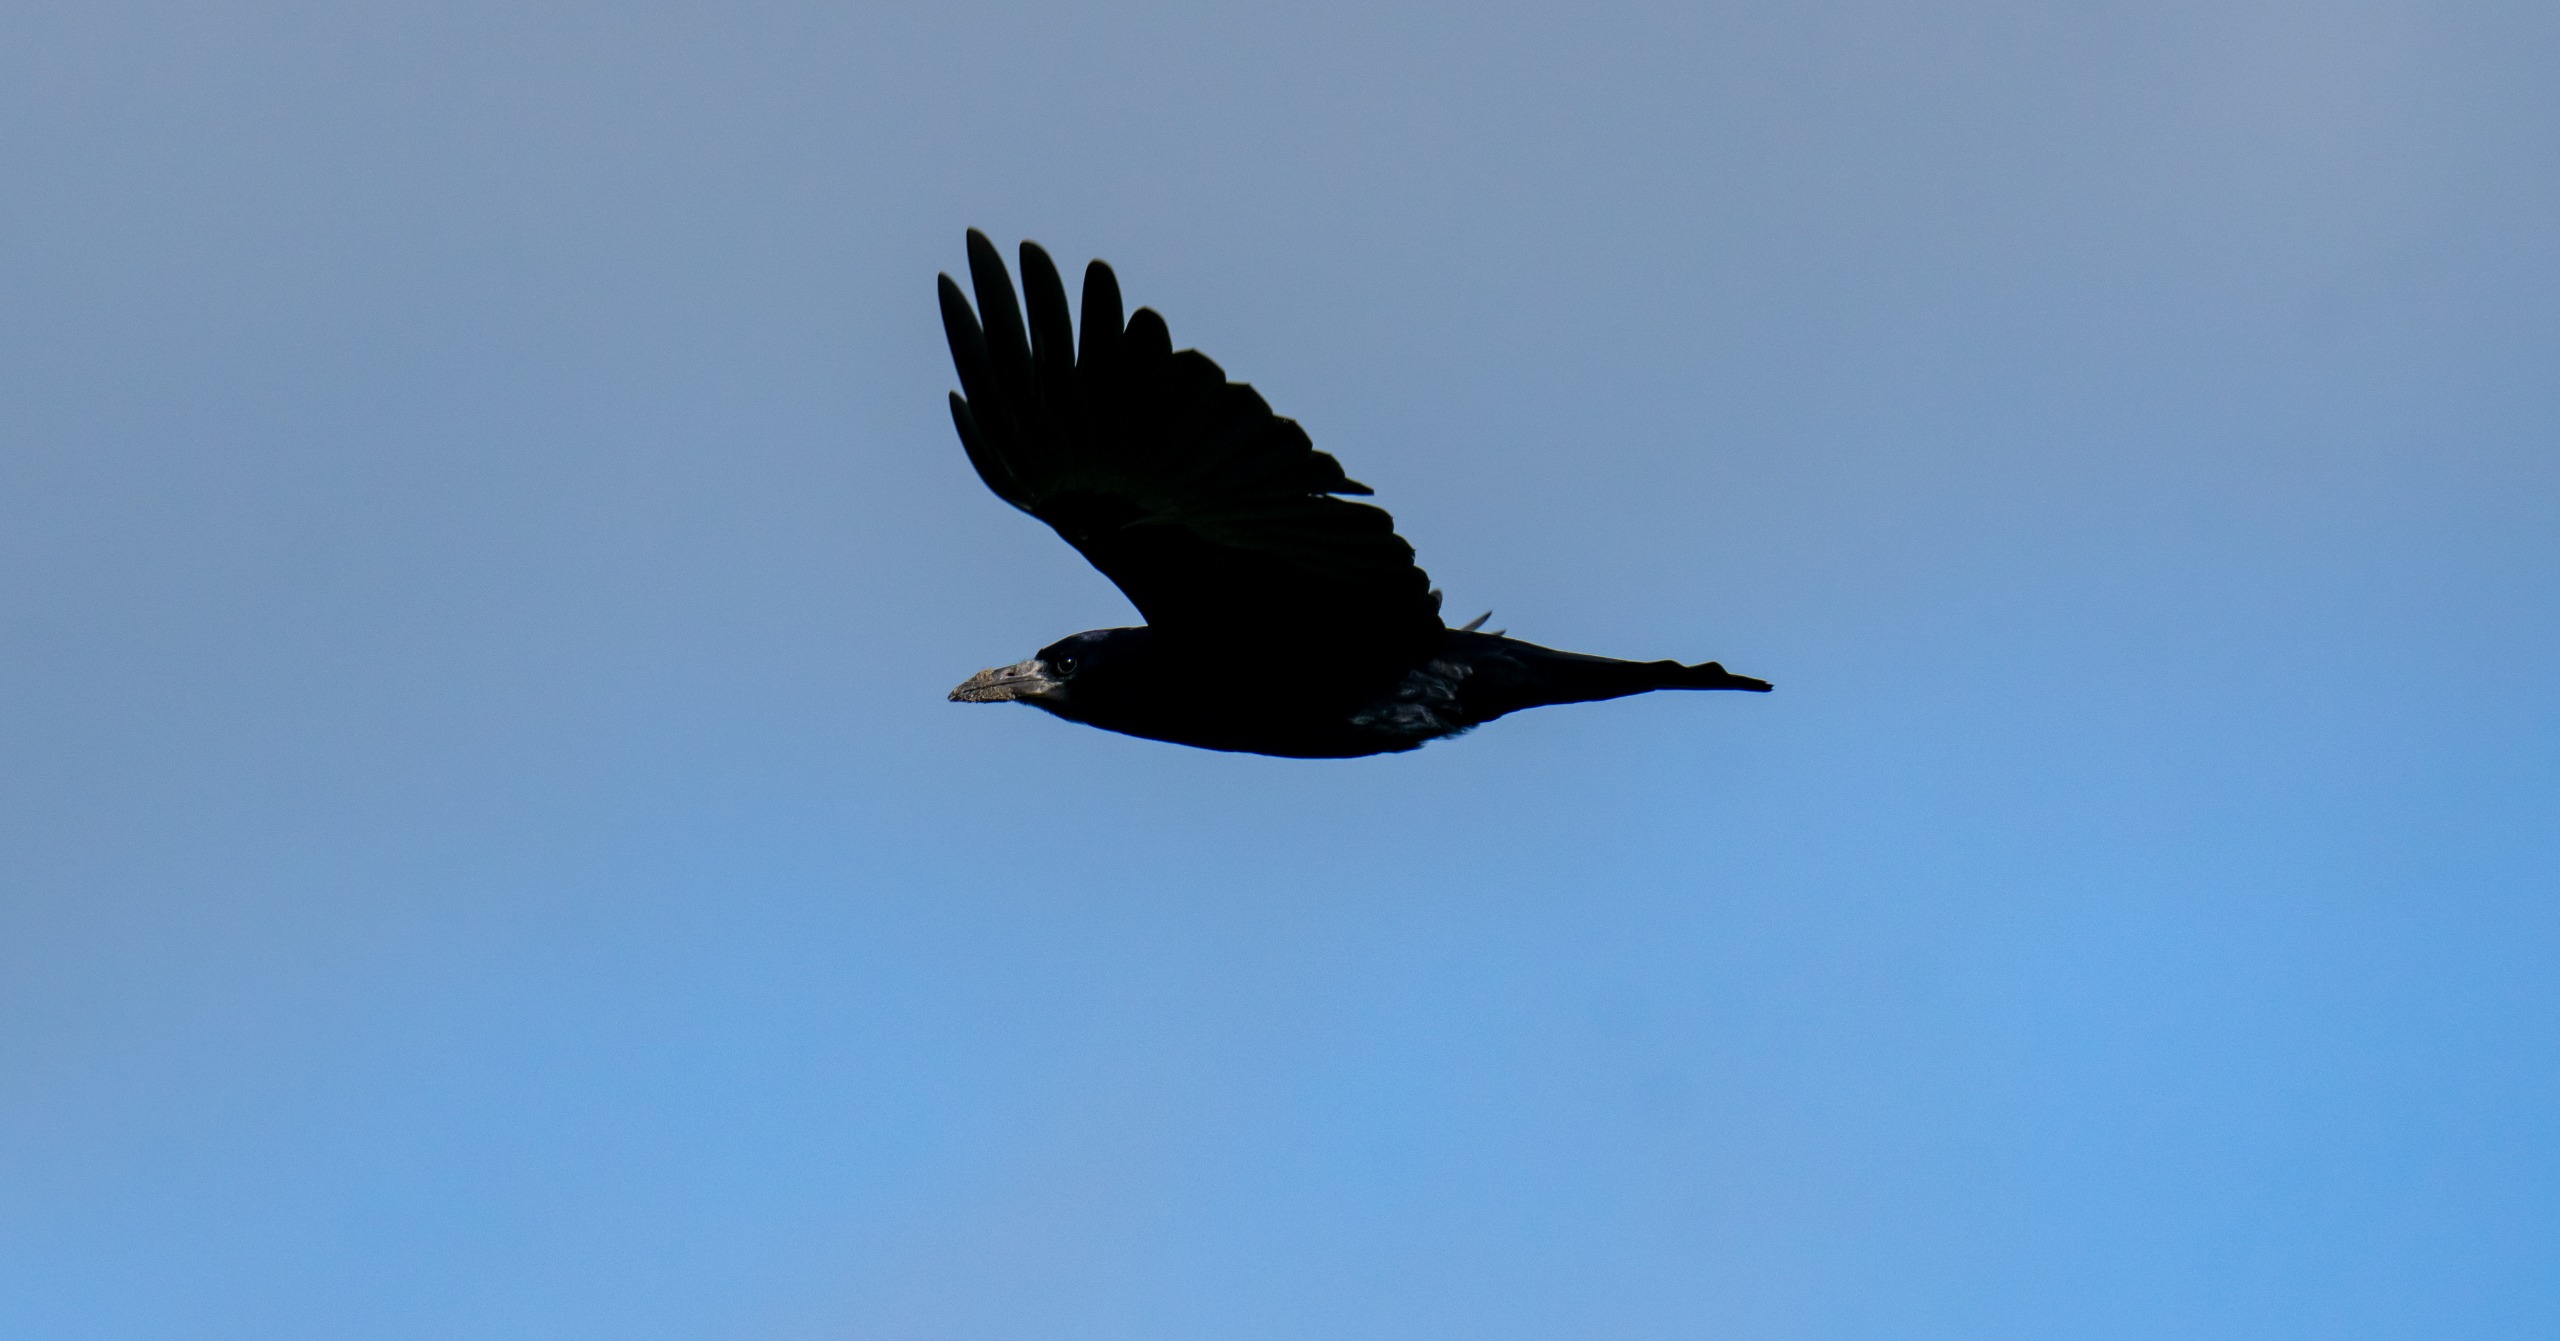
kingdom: Animalia
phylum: Chordata
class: Aves
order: Passeriformes
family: Corvidae
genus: Corvus
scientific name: Corvus frugilegus
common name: Råge
